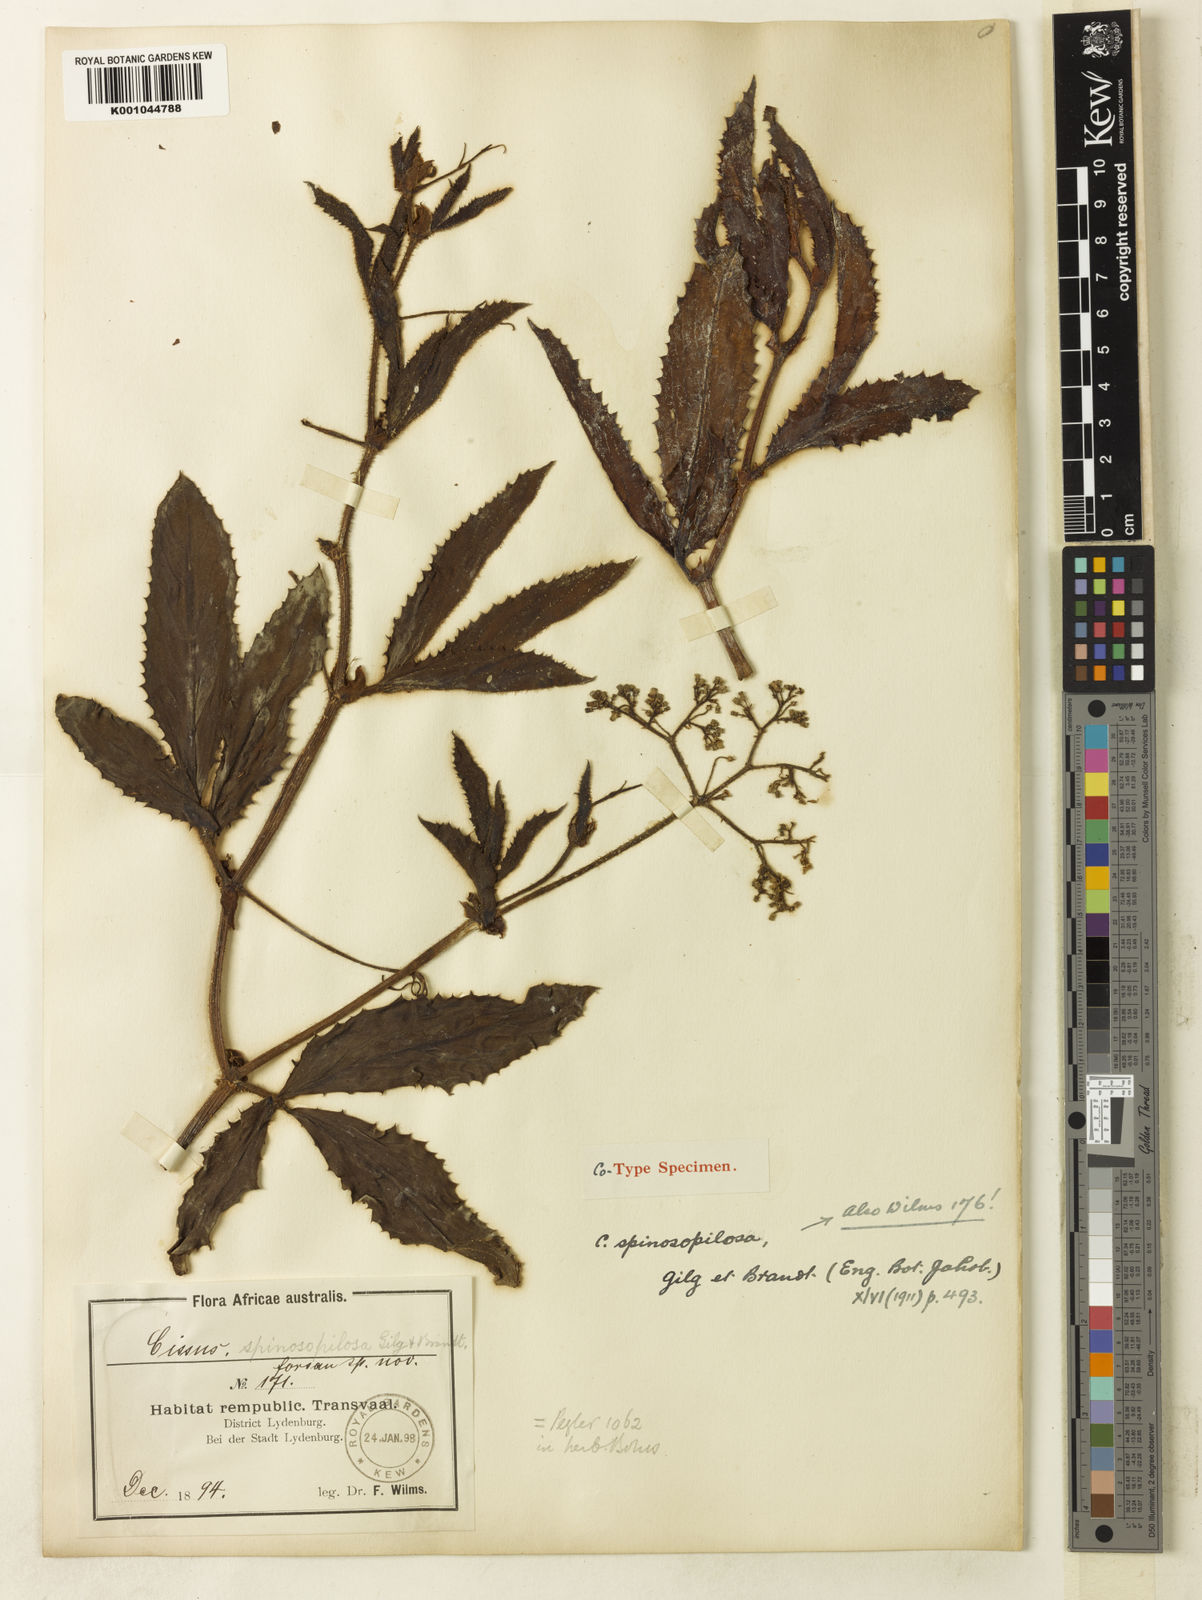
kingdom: Plantae
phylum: Tracheophyta
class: Magnoliopsida
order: Vitales
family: Vitaceae
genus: Cyphostemma
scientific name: Cyphostemma spinosopilosum
